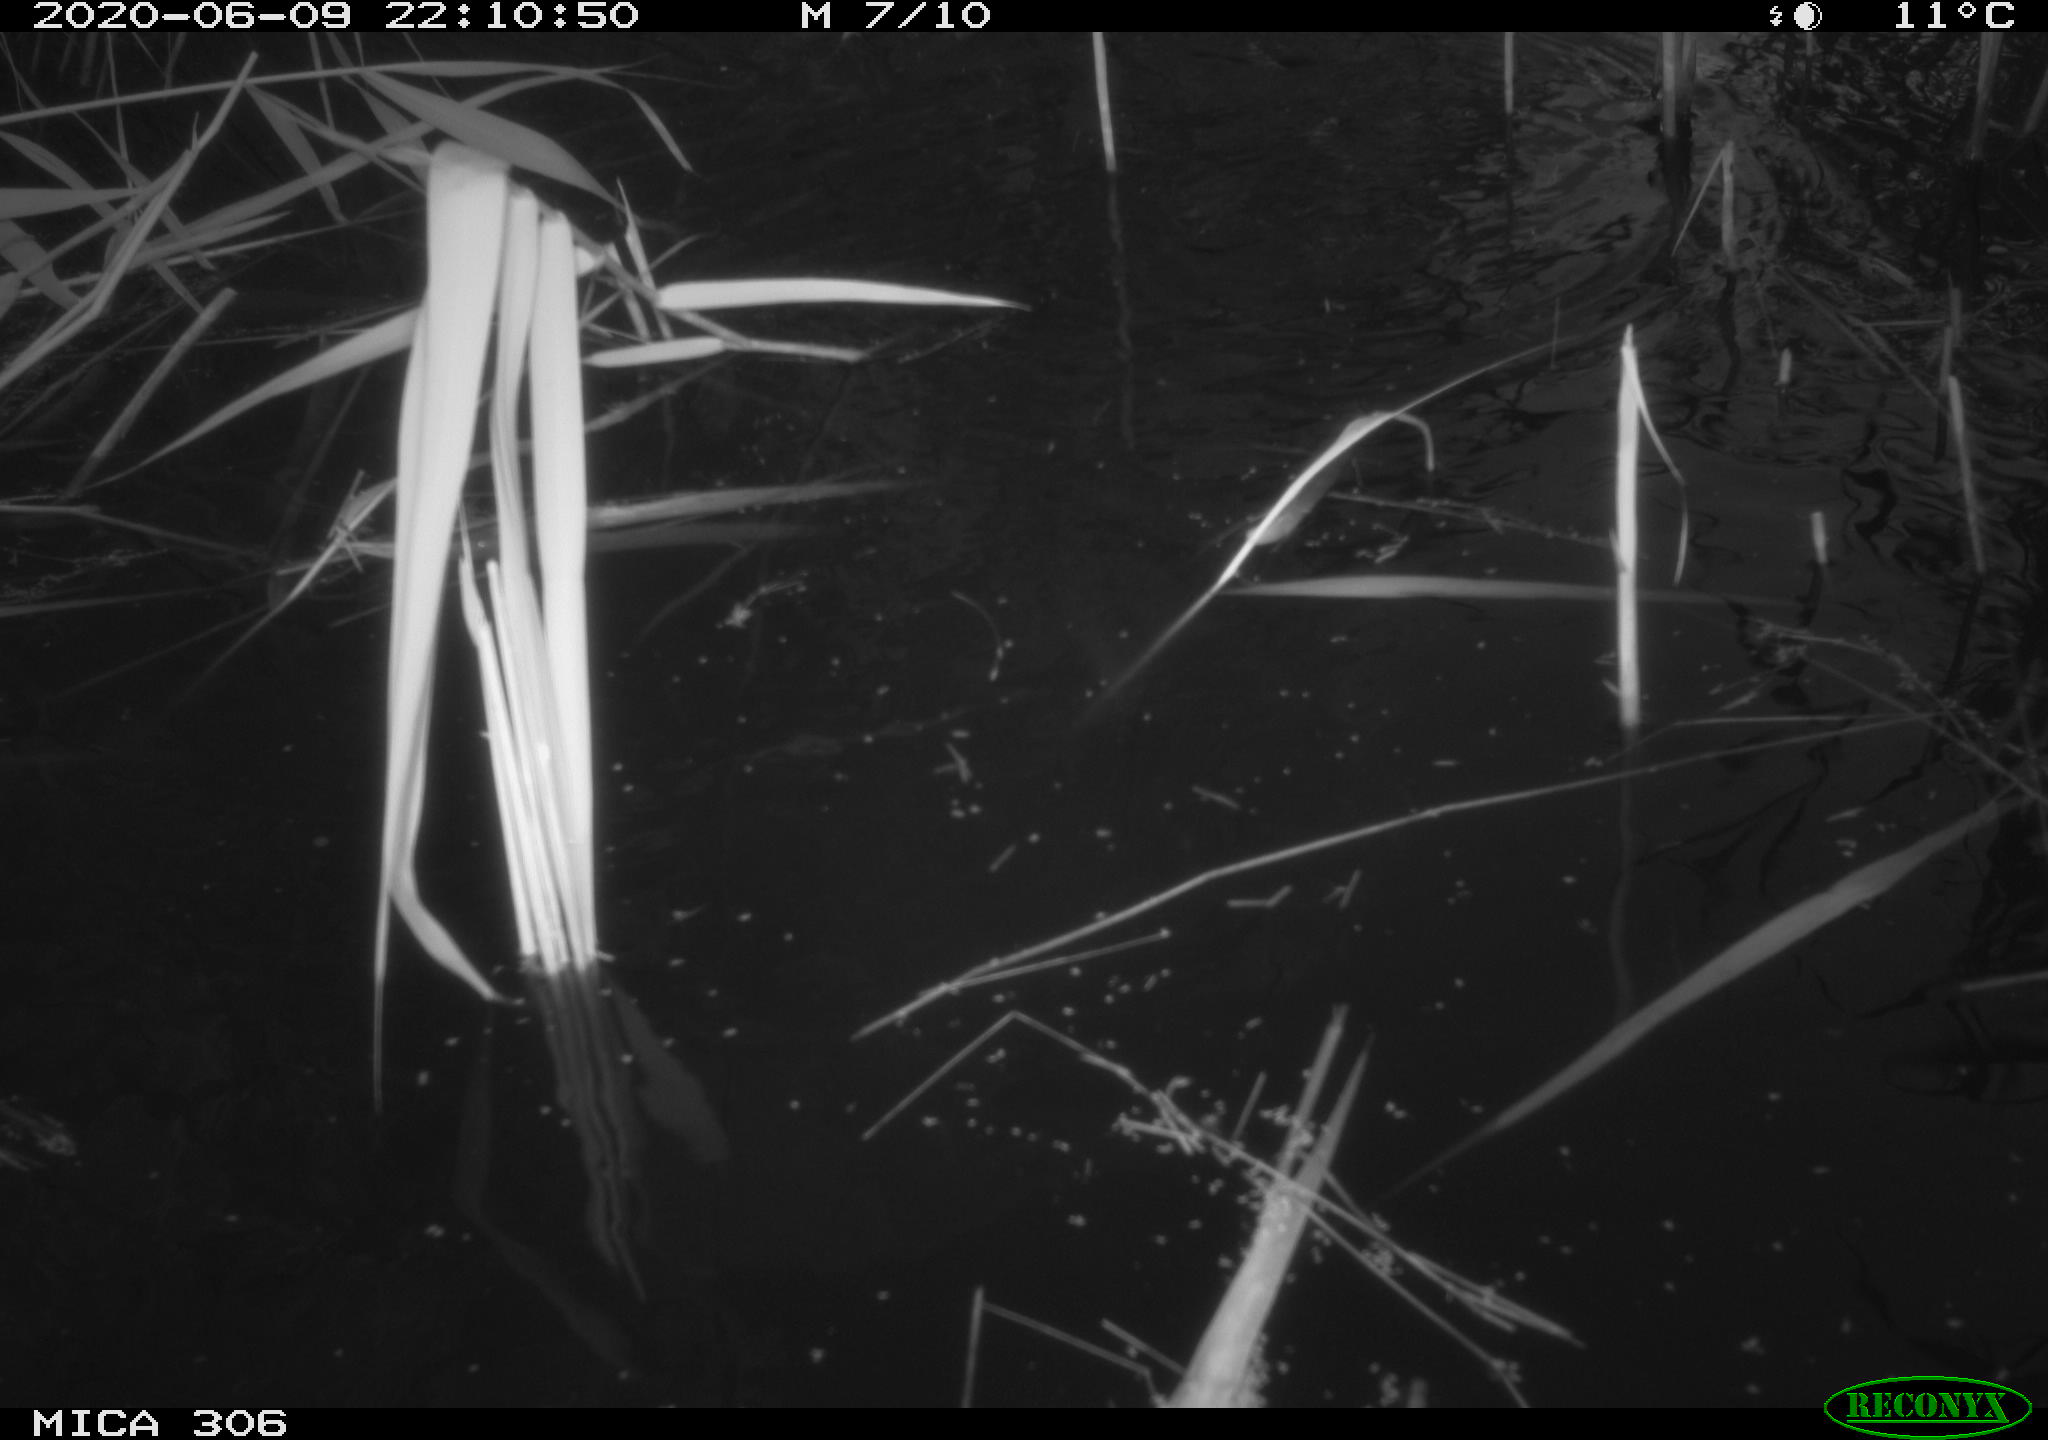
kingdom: Animalia
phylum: Chordata
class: Mammalia
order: Rodentia
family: Muridae
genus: Rattus
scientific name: Rattus norvegicus
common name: Brown rat
